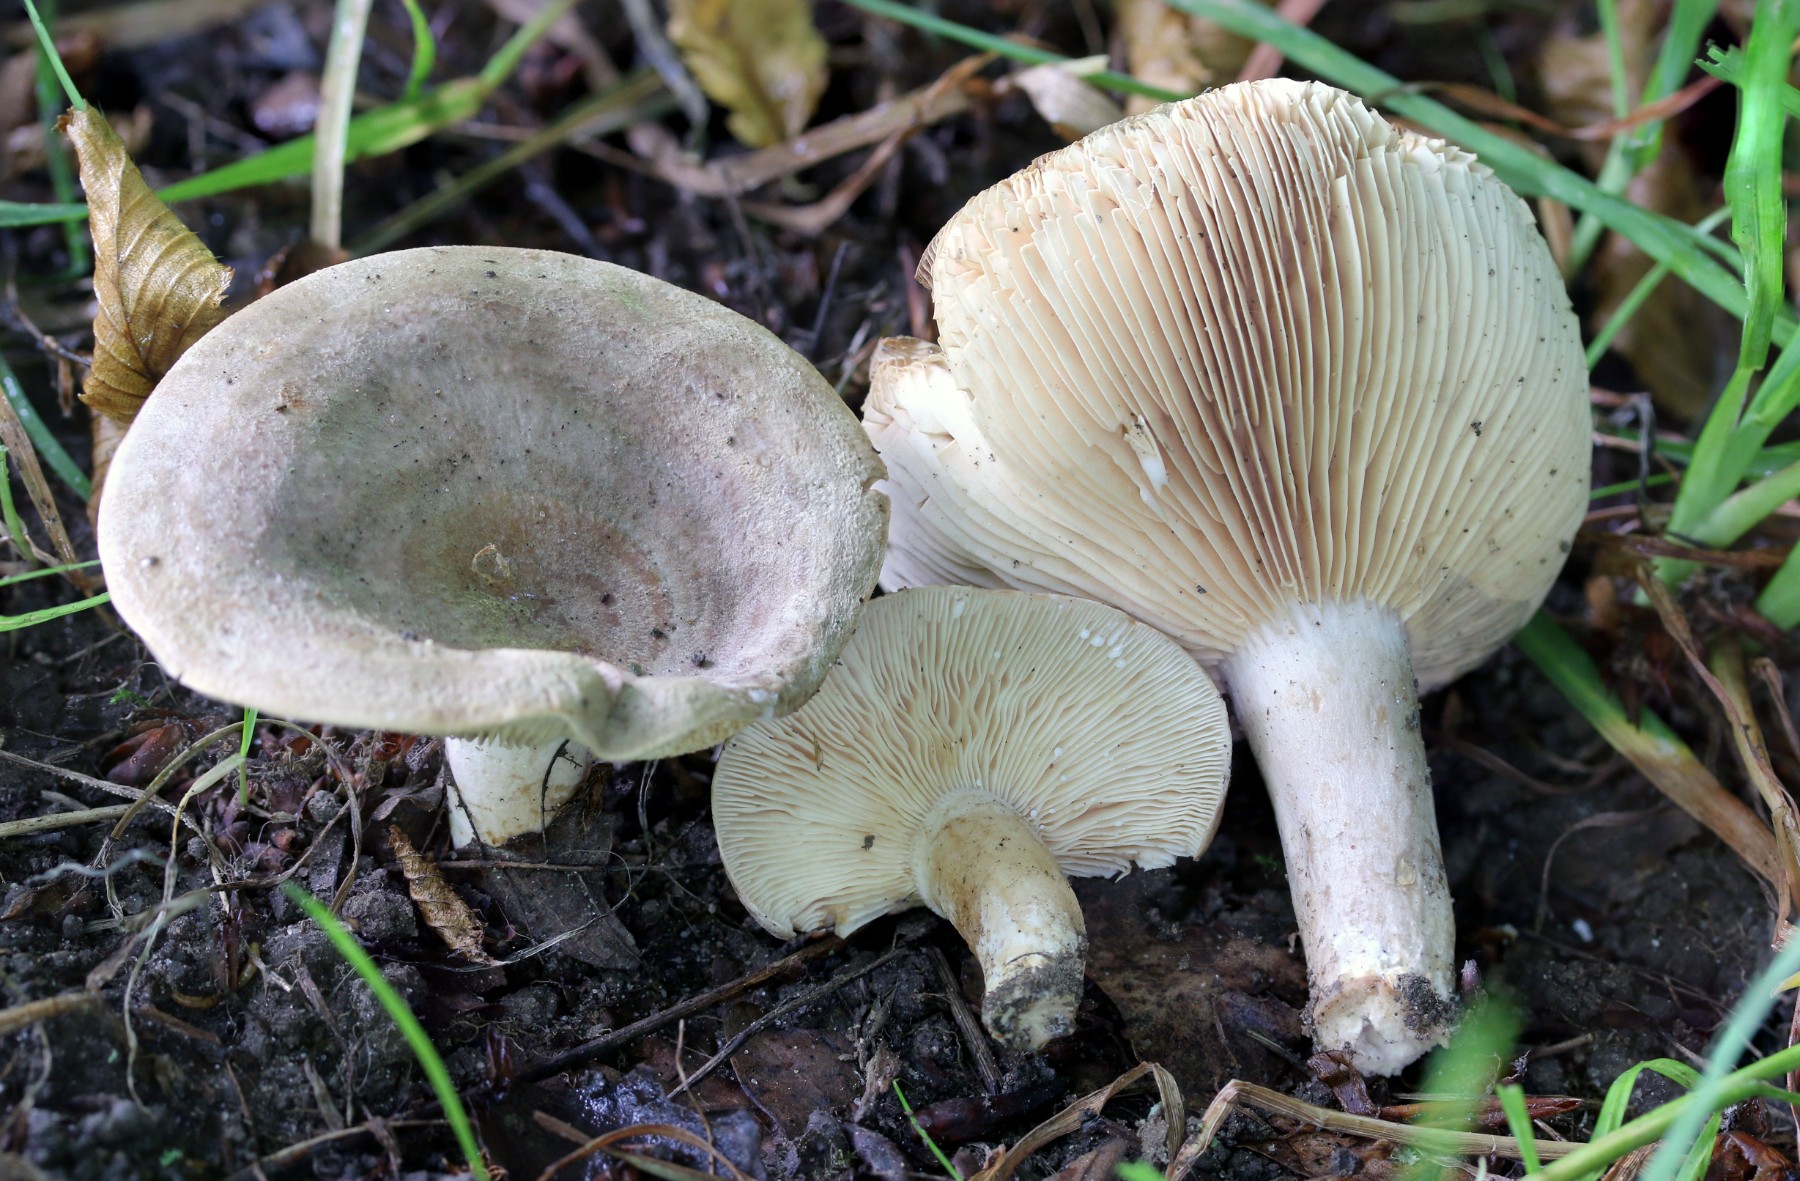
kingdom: Fungi
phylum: Basidiomycota
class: Agaricomycetes
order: Russulales
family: Russulaceae
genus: Lactarius
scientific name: Lactarius circellatus
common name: avnbøg-mælkehat
